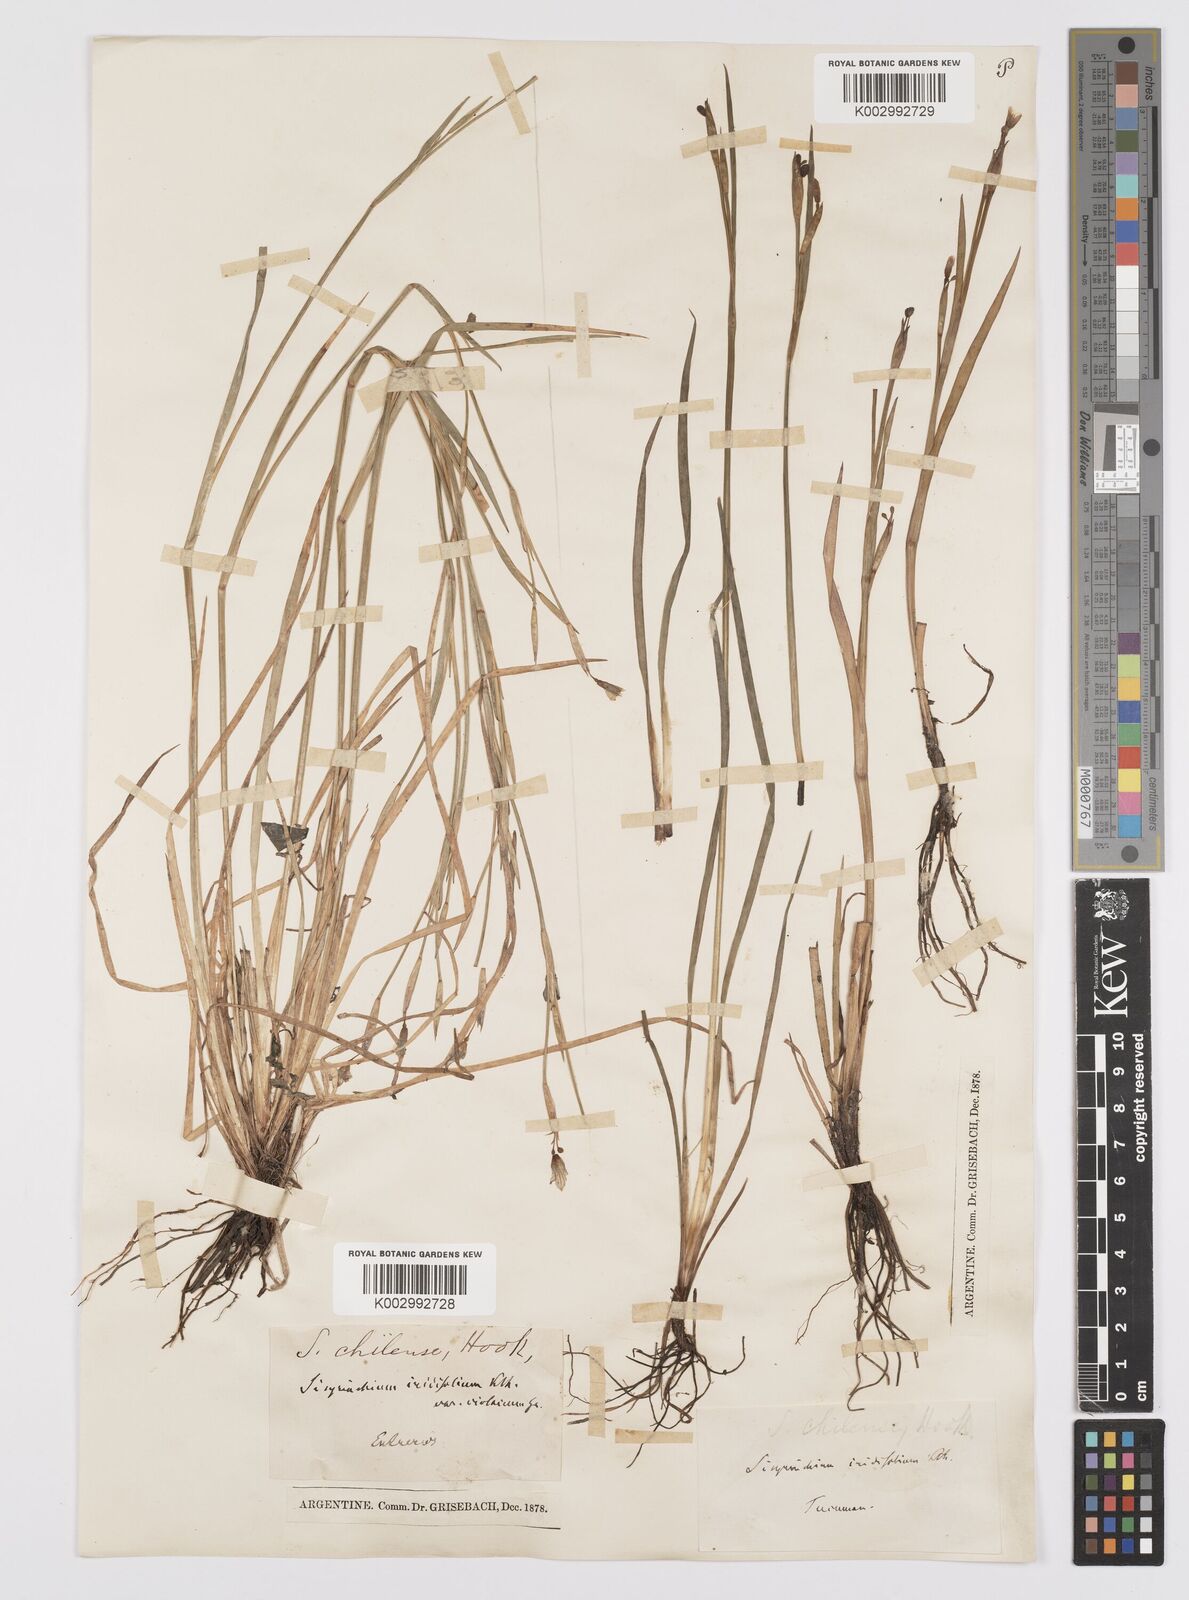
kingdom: Plantae
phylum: Tracheophyta
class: Liliopsida
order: Asparagales
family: Iridaceae
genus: Sisyrinchium
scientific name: Sisyrinchium chilense
